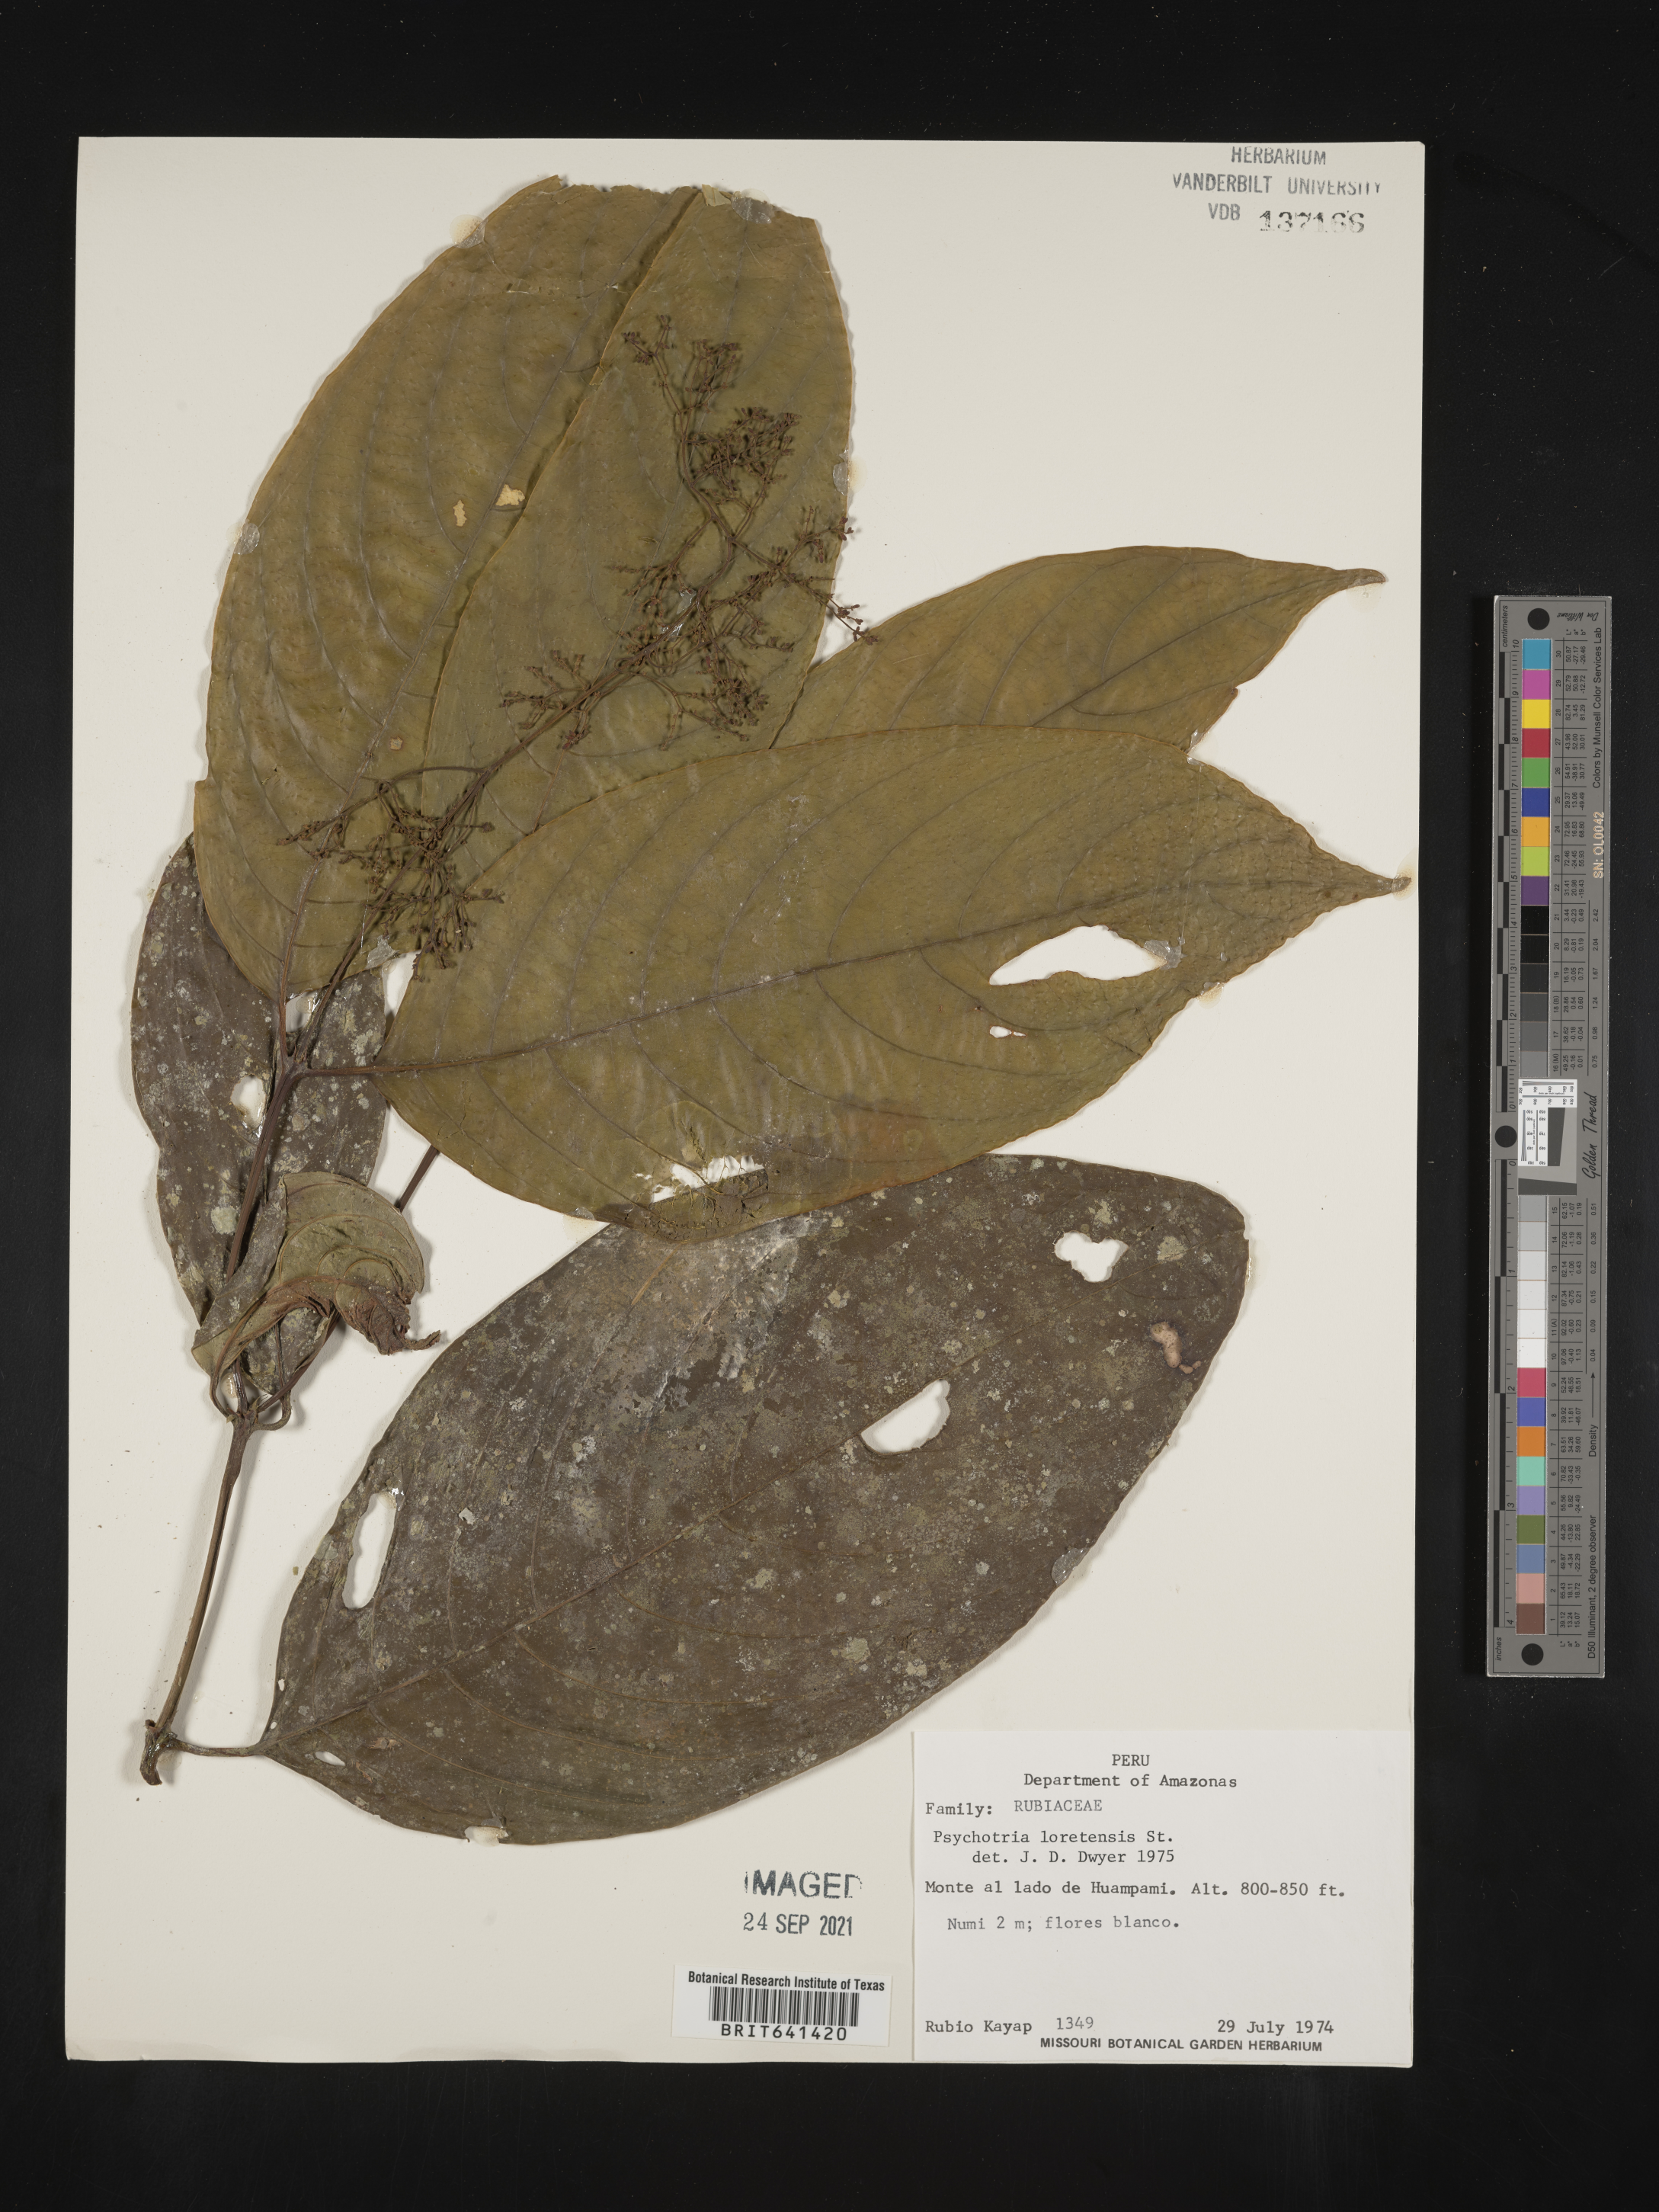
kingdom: Plantae
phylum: Tracheophyta
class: Magnoliopsida
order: Gentianales
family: Rubiaceae
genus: Psychotria
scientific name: Psychotria
